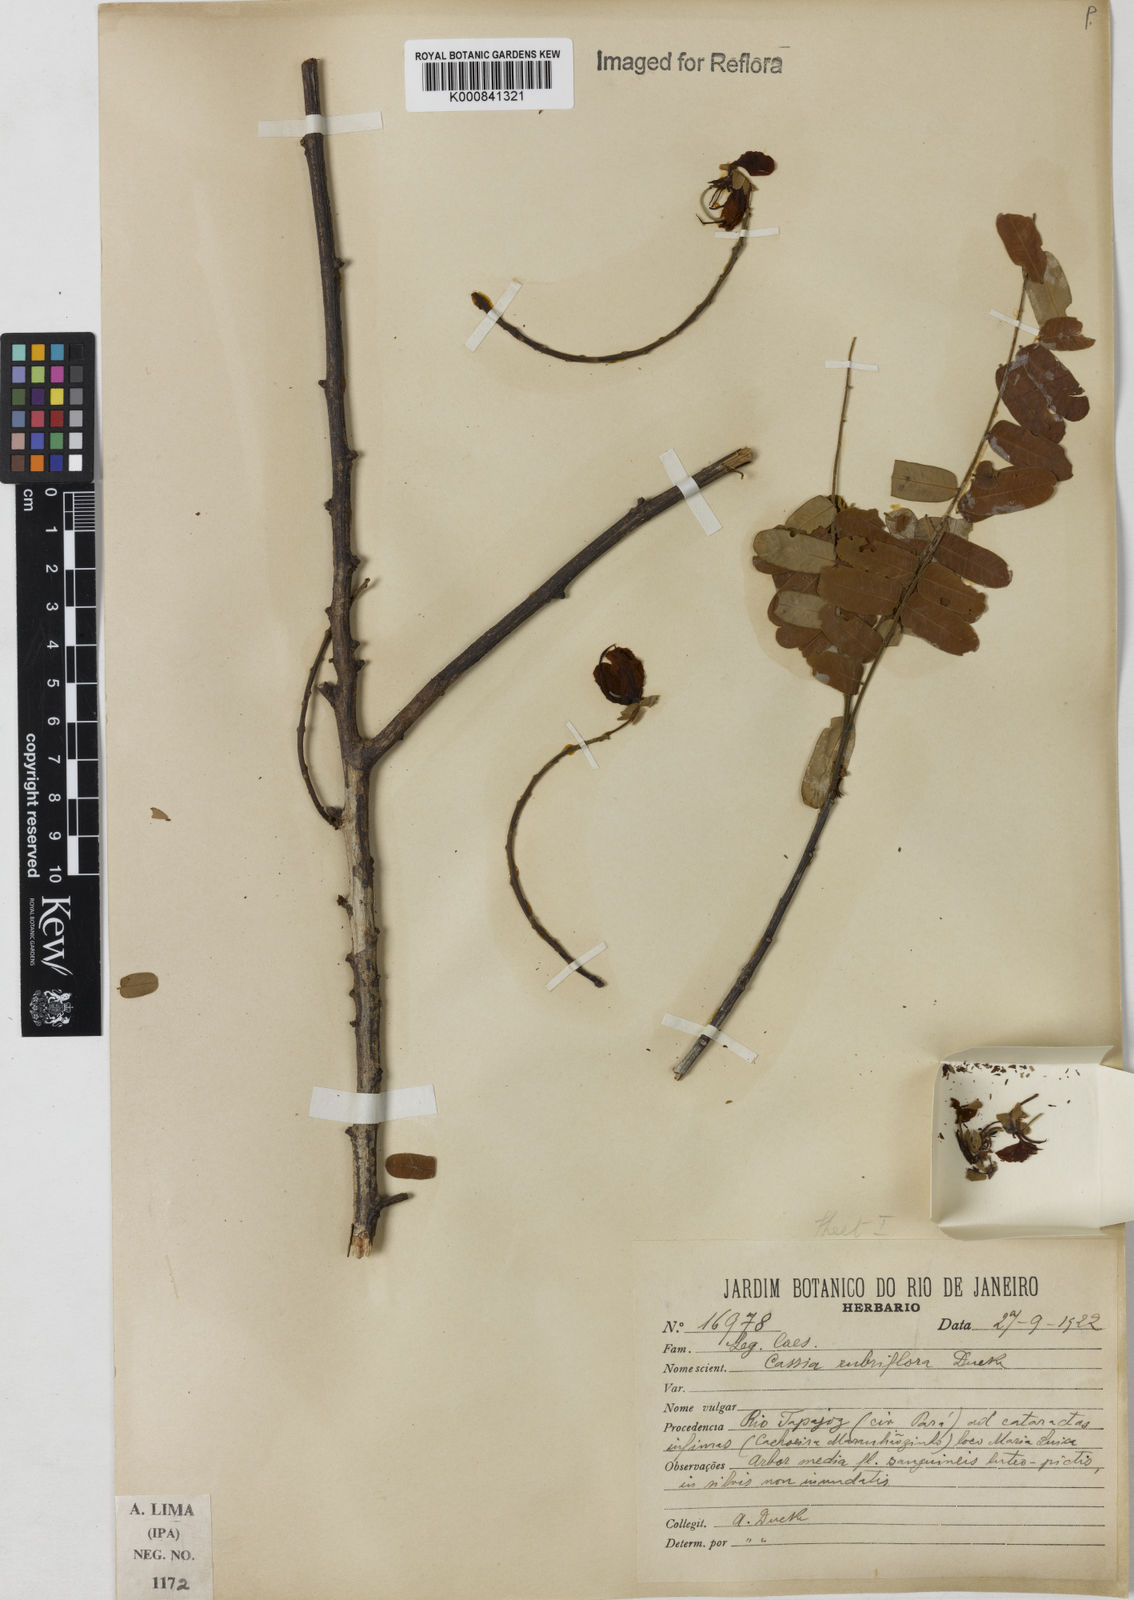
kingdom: Plantae
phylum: Tracheophyta
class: Magnoliopsida
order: Fabales
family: Fabaceae
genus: Cassia
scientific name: Cassia rubriflora
